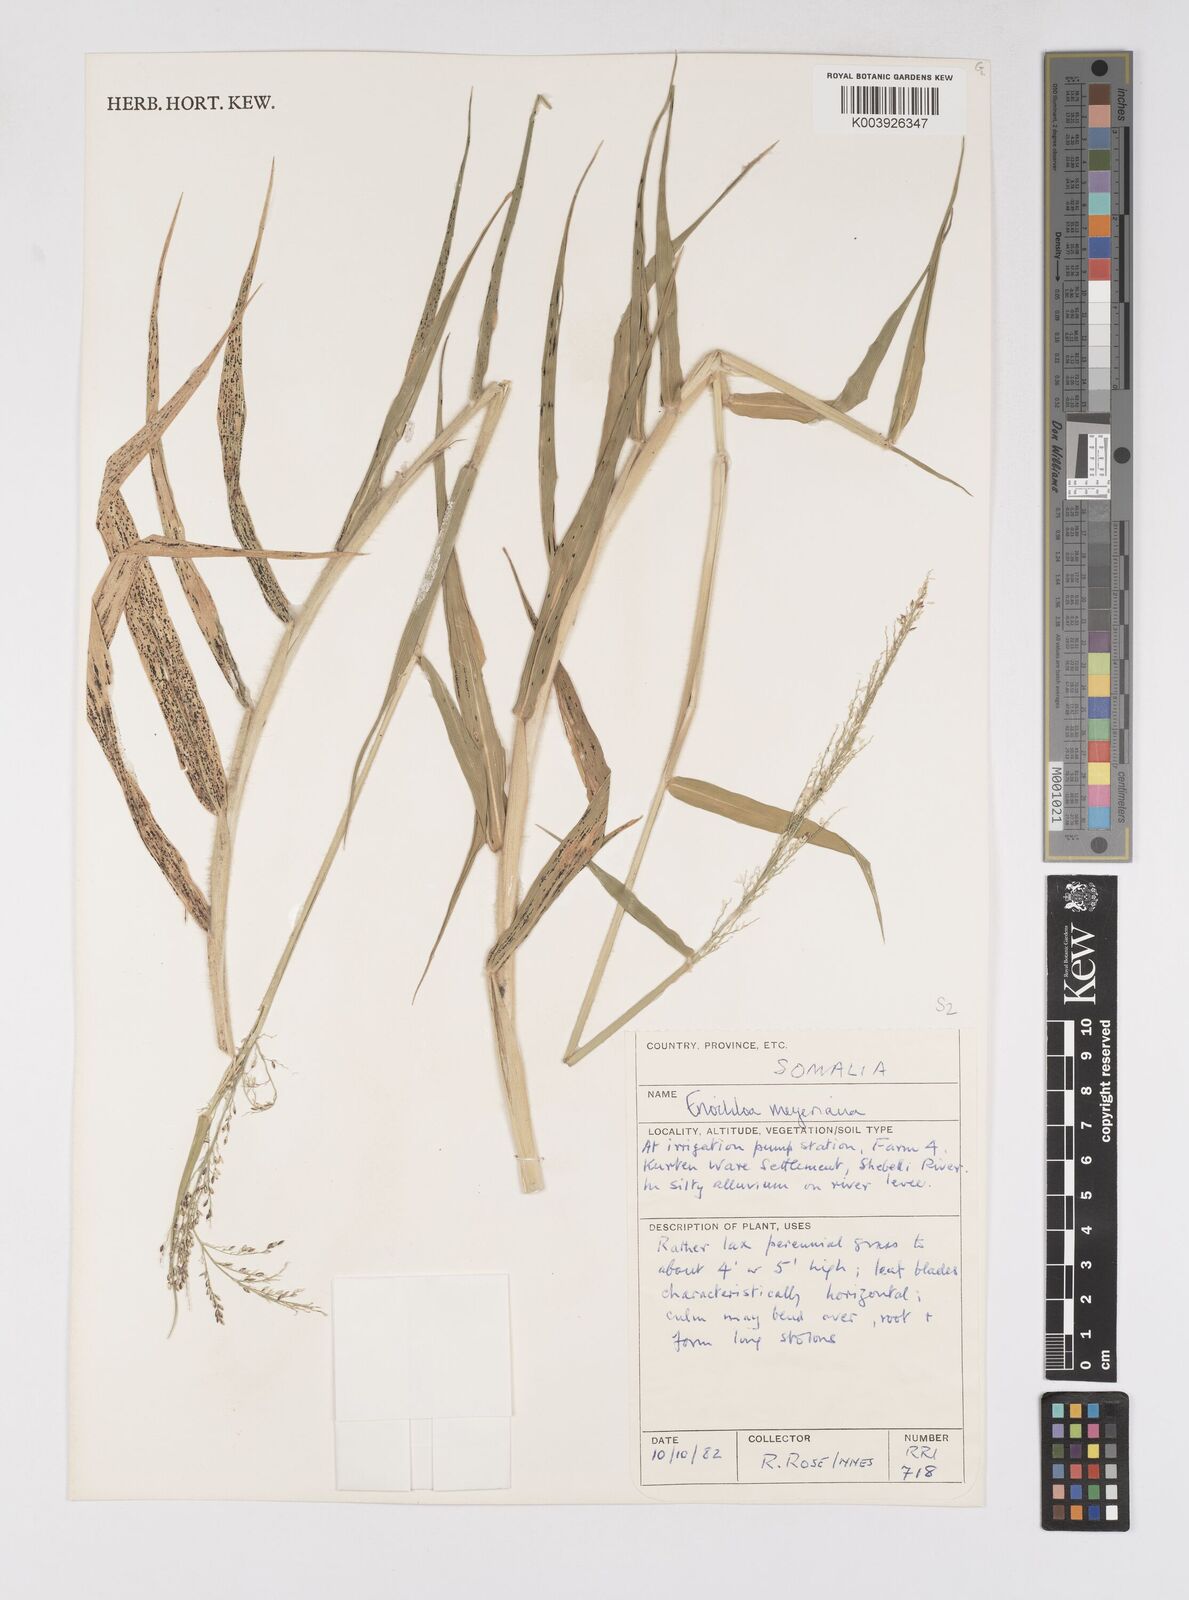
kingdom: Plantae
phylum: Tracheophyta
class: Liliopsida
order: Poales
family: Poaceae
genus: Eriochloa
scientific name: Eriochloa meyeriana
